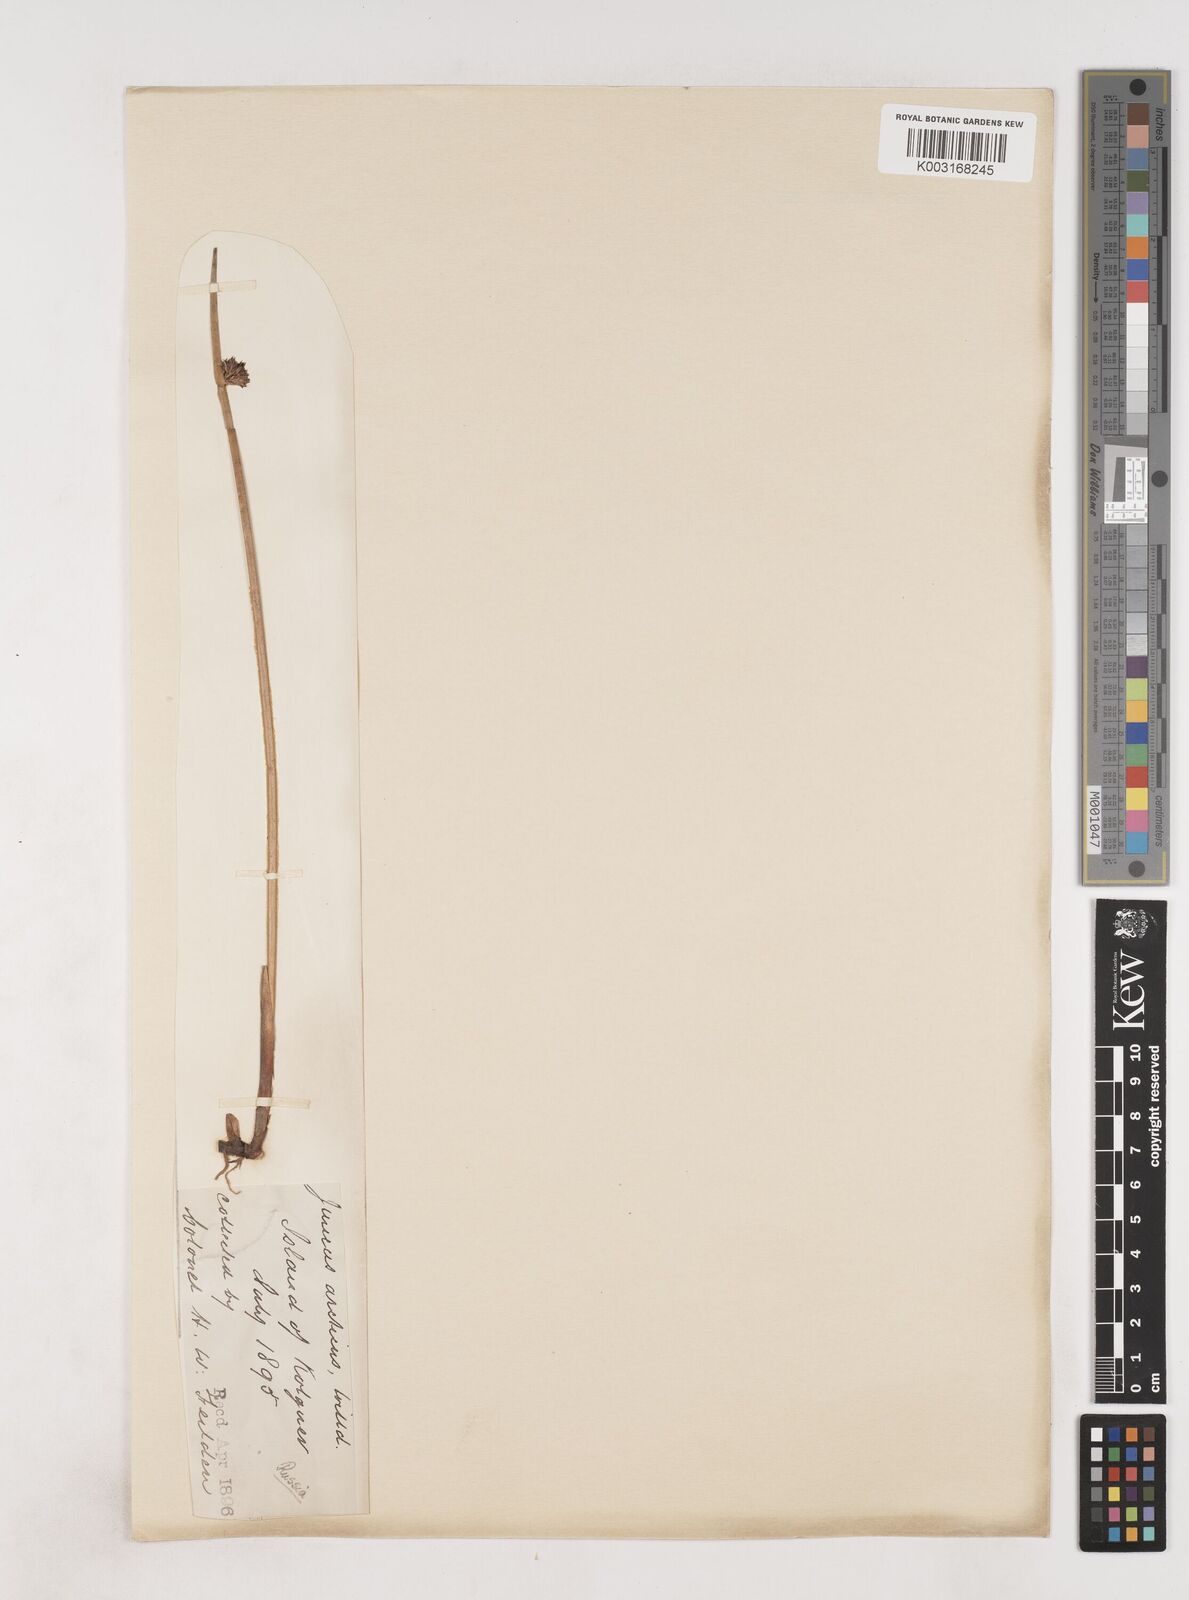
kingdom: Plantae
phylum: Tracheophyta
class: Liliopsida
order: Poales
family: Juncaceae
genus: Juncus
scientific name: Juncus arcticus
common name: Arctic rush
